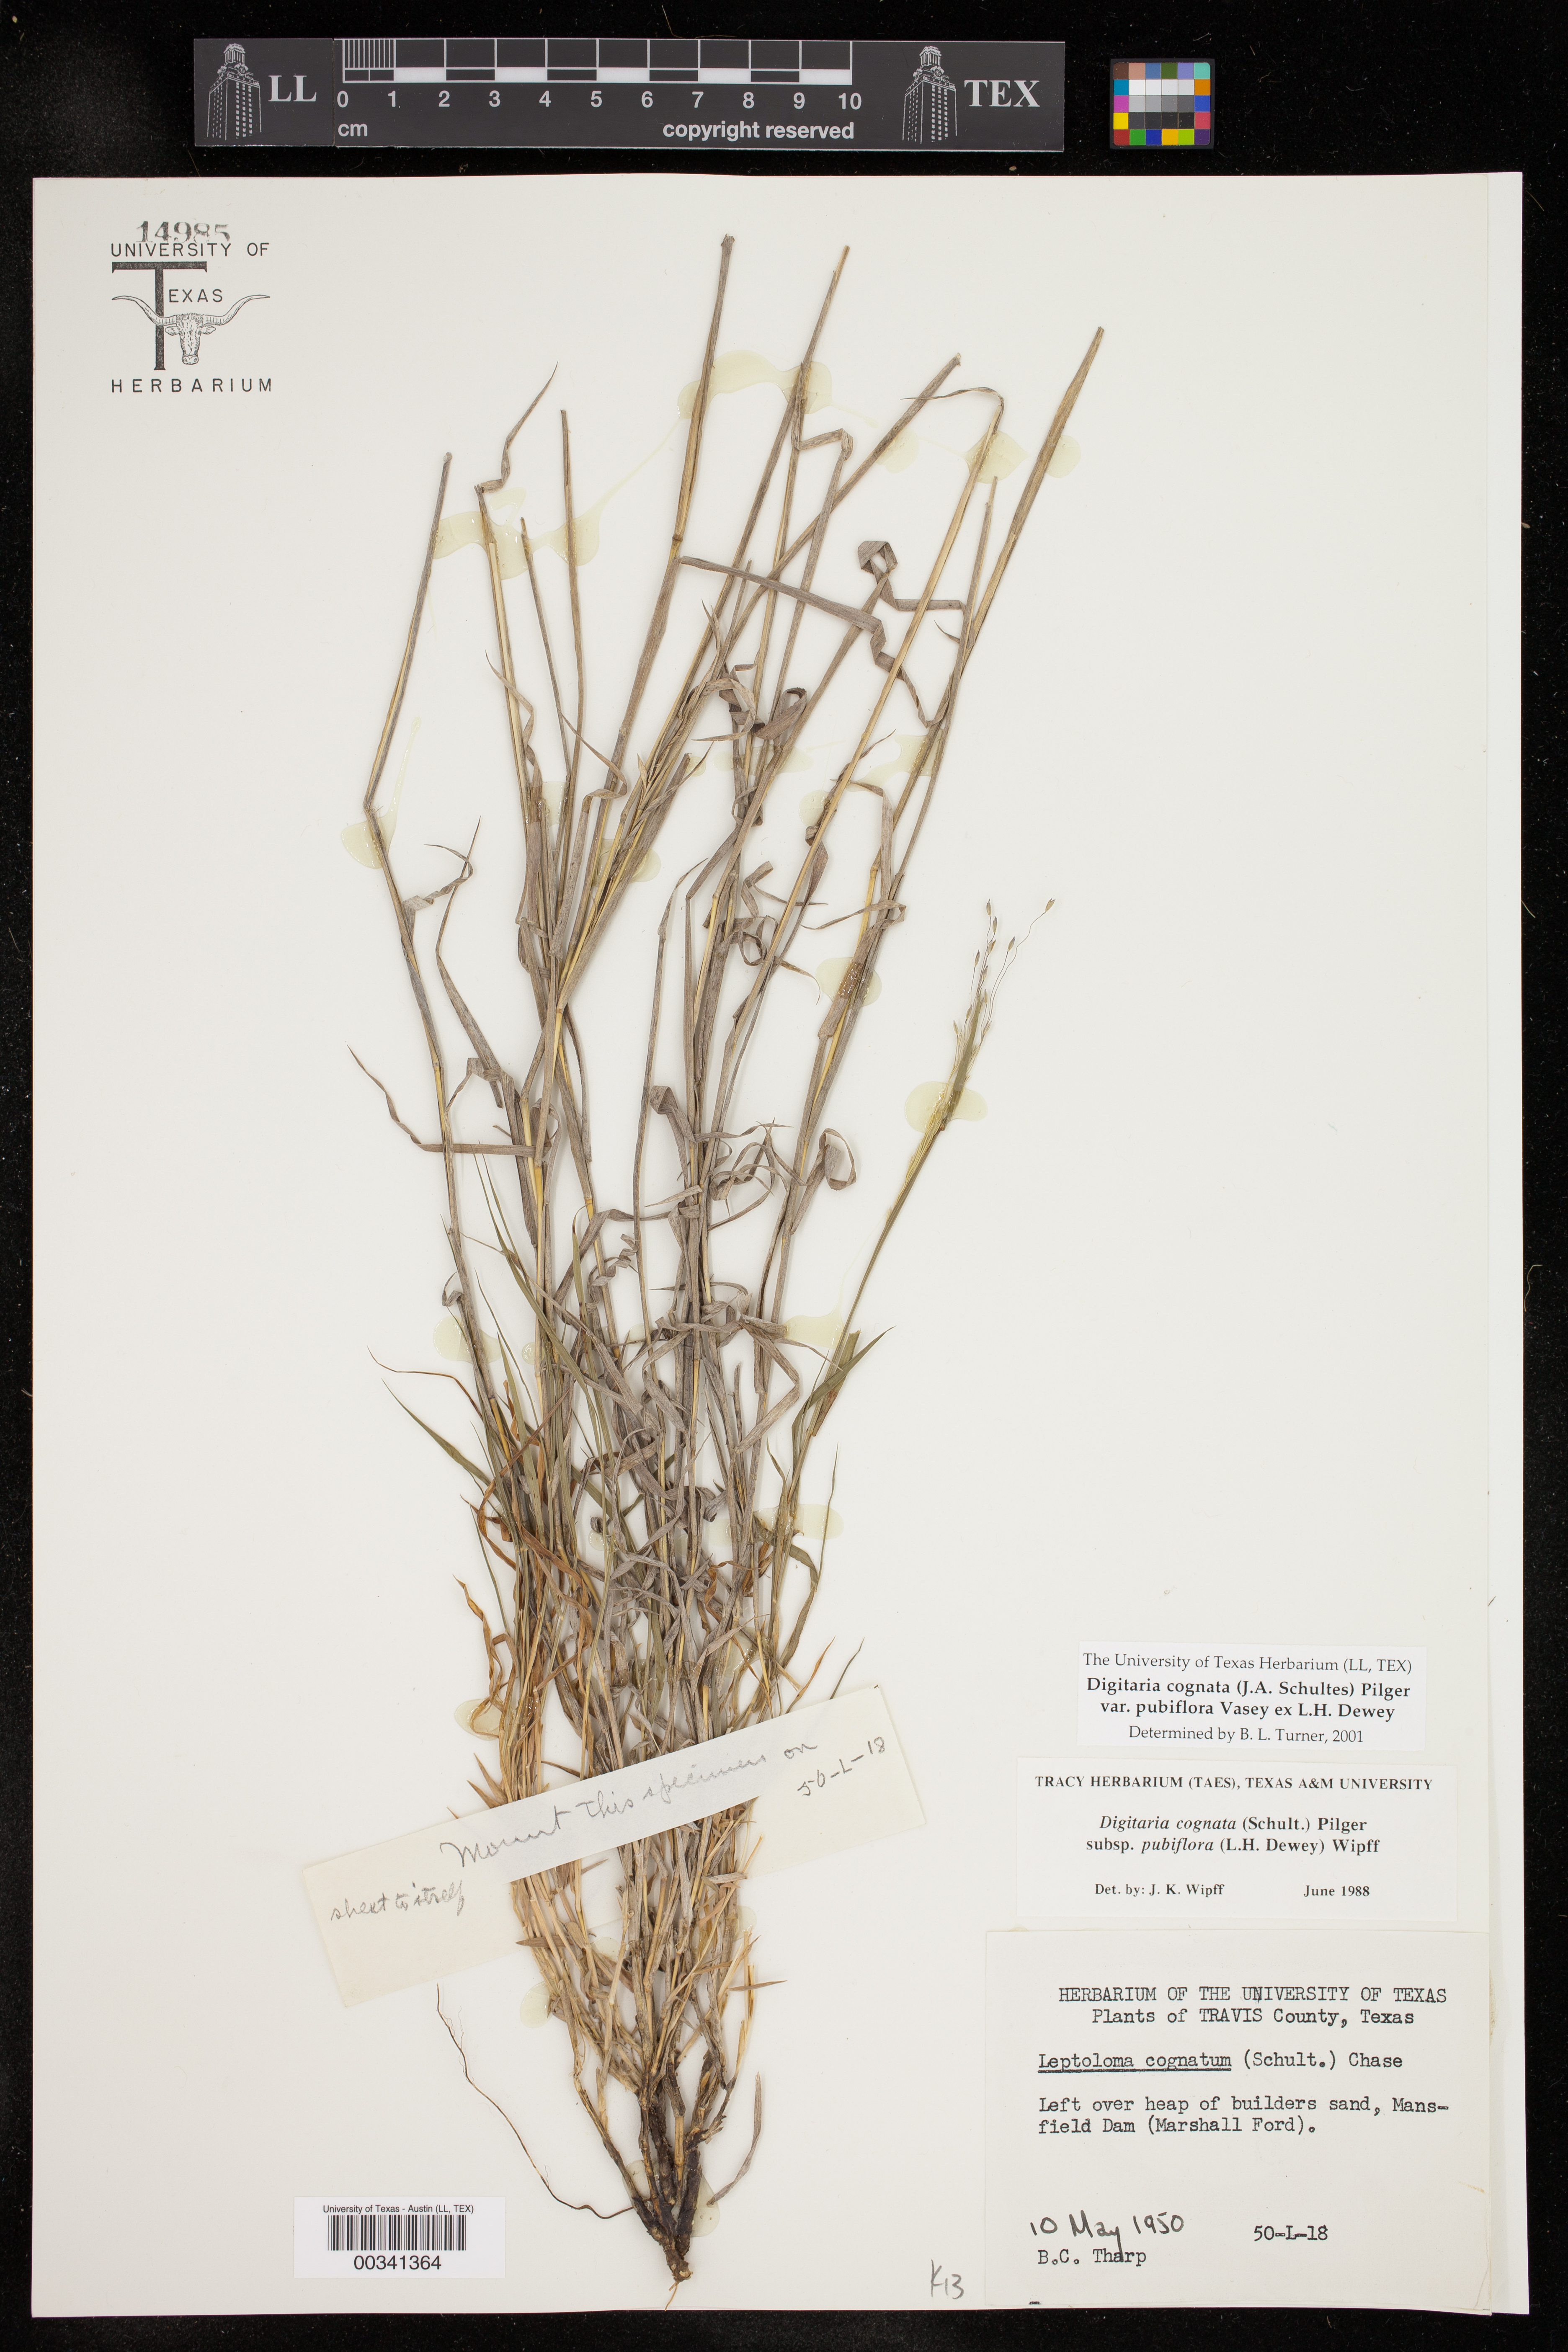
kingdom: Plantae
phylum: Tracheophyta
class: Liliopsida
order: Poales
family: Poaceae
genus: Digitaria
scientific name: Digitaria cognata
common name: Fall witchgrass
